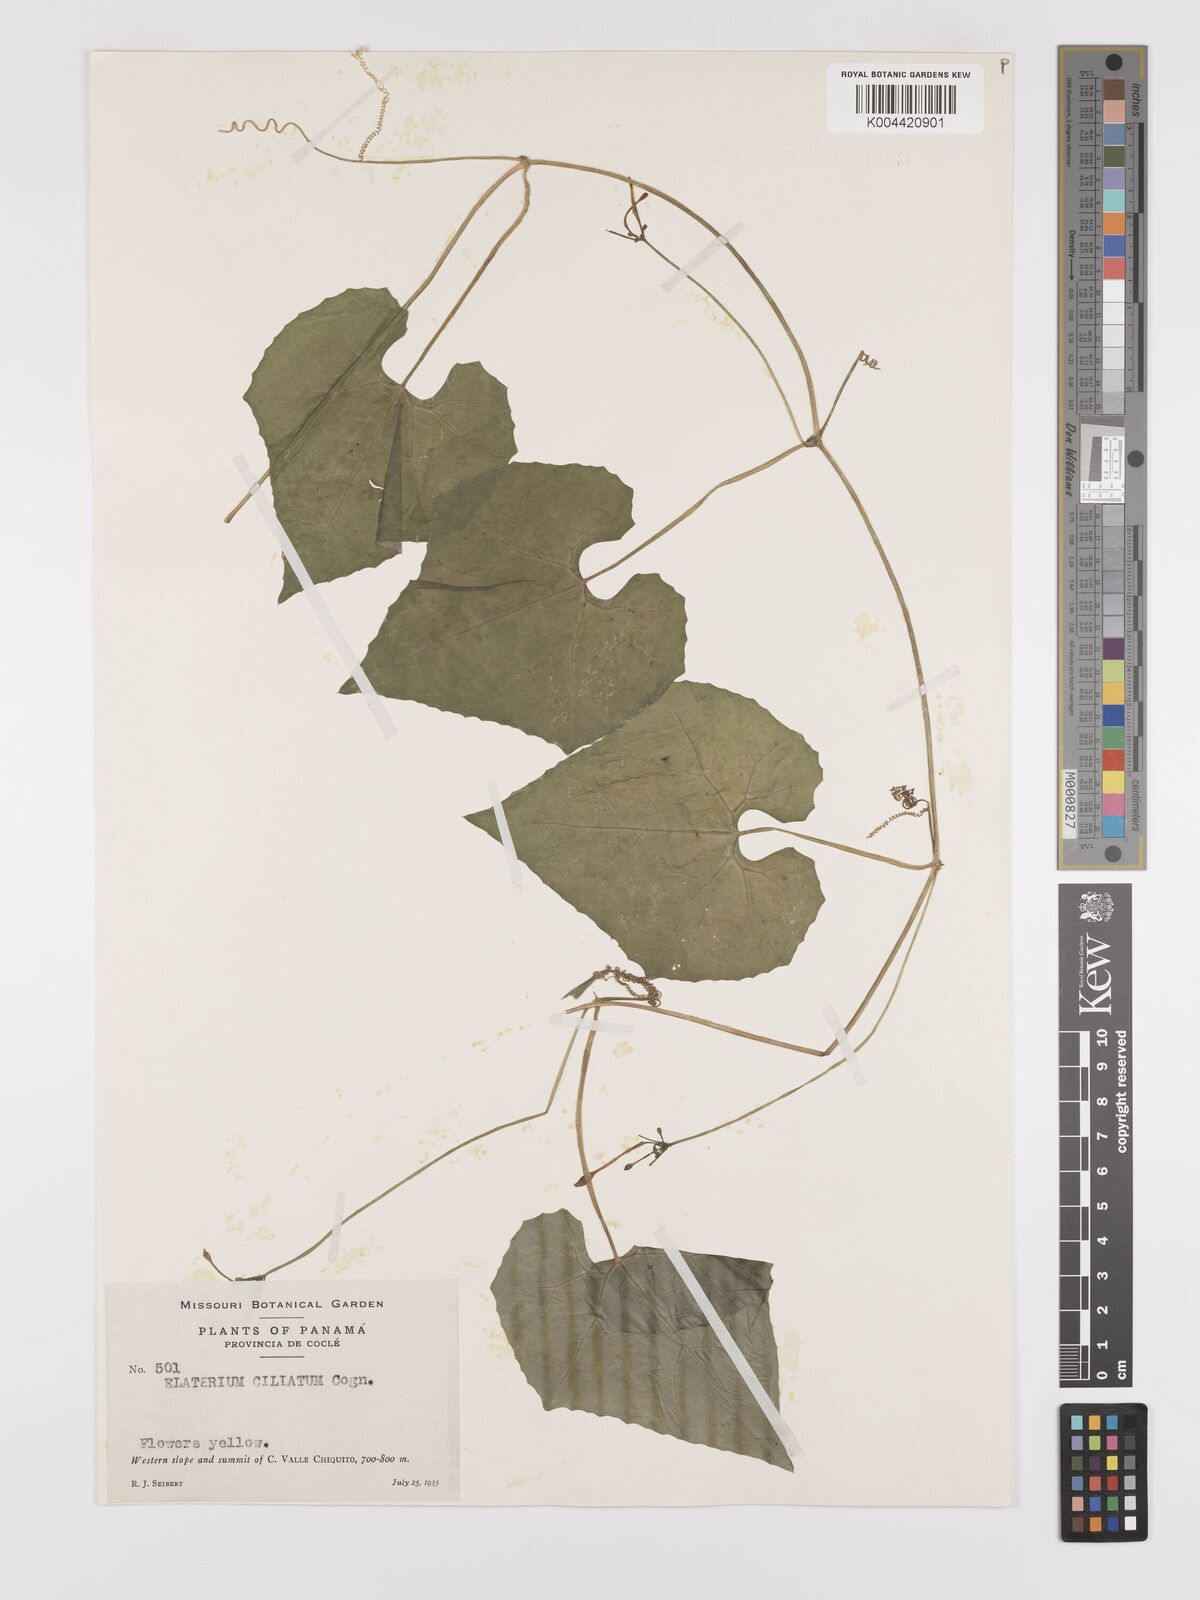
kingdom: Plantae
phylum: Tracheophyta
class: Magnoliopsida
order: Cucurbitales
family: Cucurbitaceae
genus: Cyclanthera
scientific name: Cyclanthera filiformis
